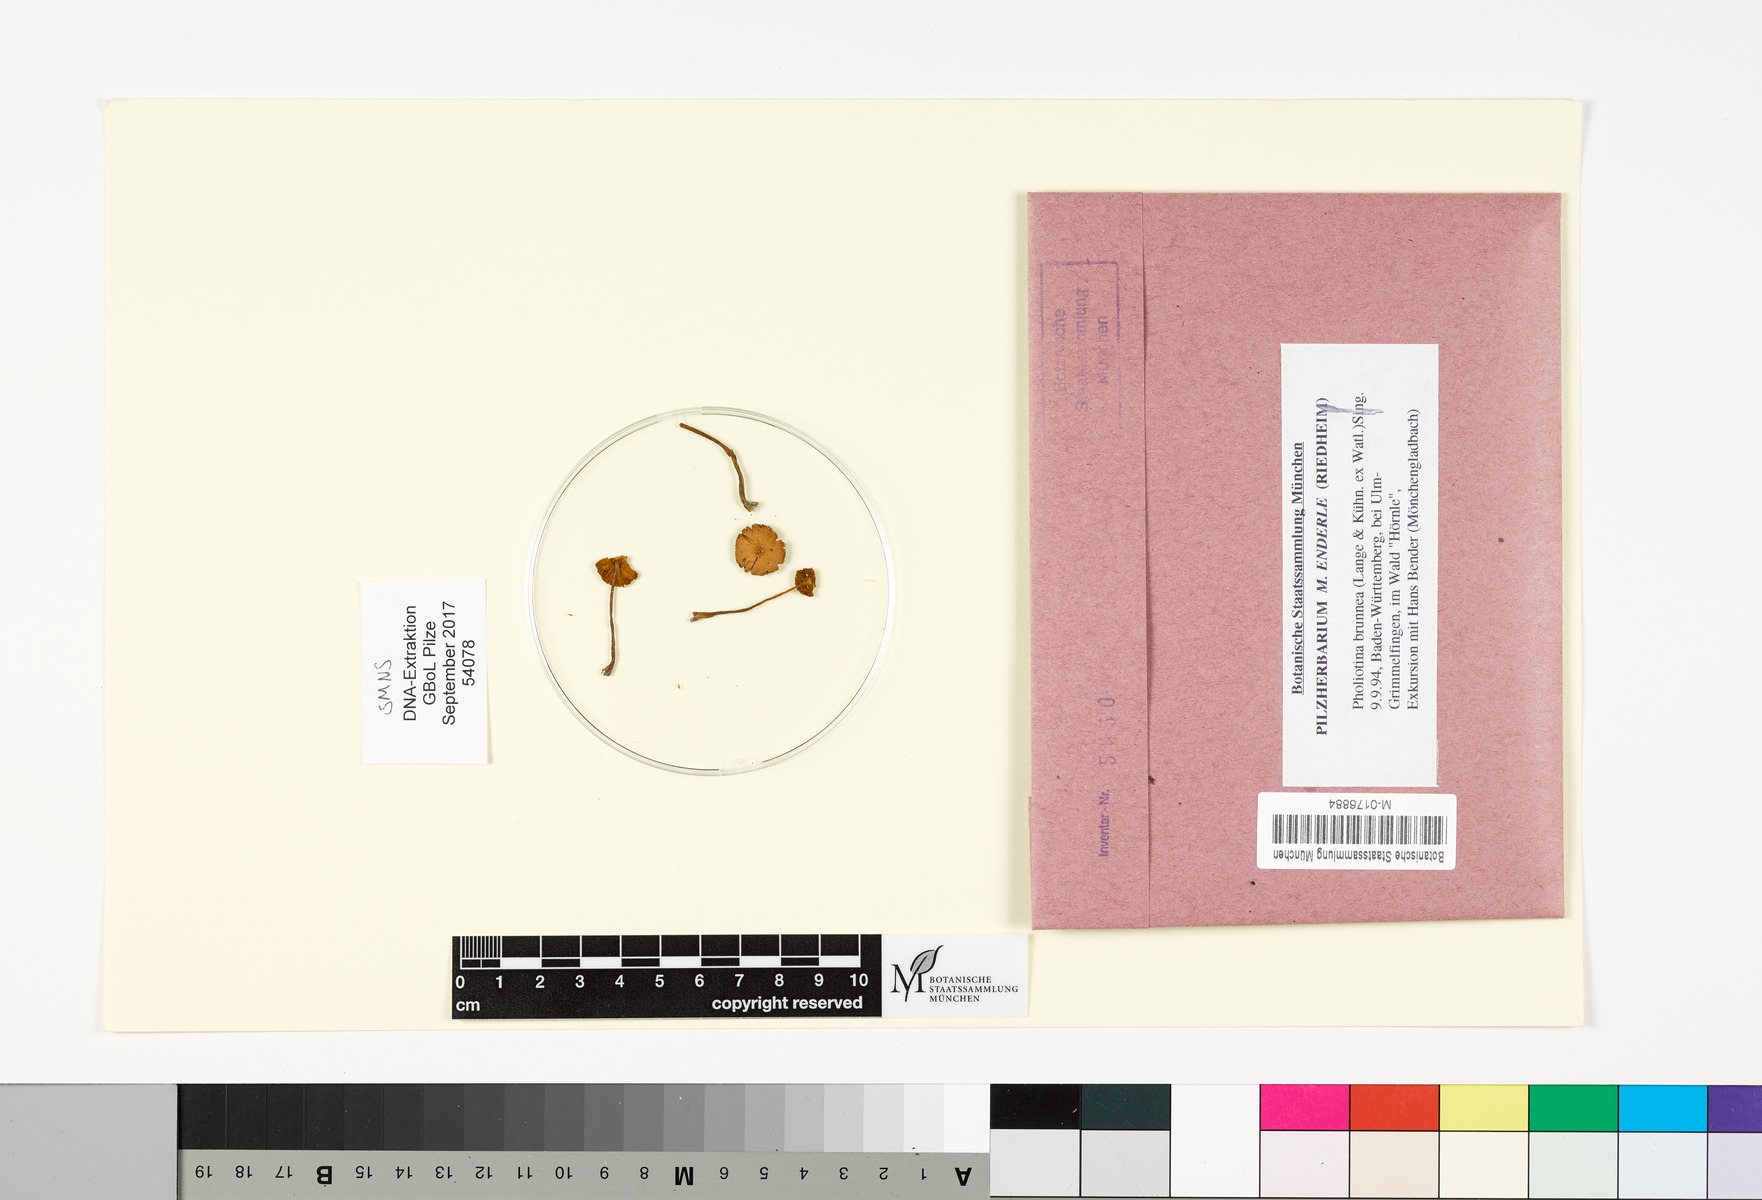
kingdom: Fungi
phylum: Basidiomycota
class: Agaricomycetes
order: Agaricales
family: Bolbitiaceae
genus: Conocybe
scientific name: Conocybe brunnea
